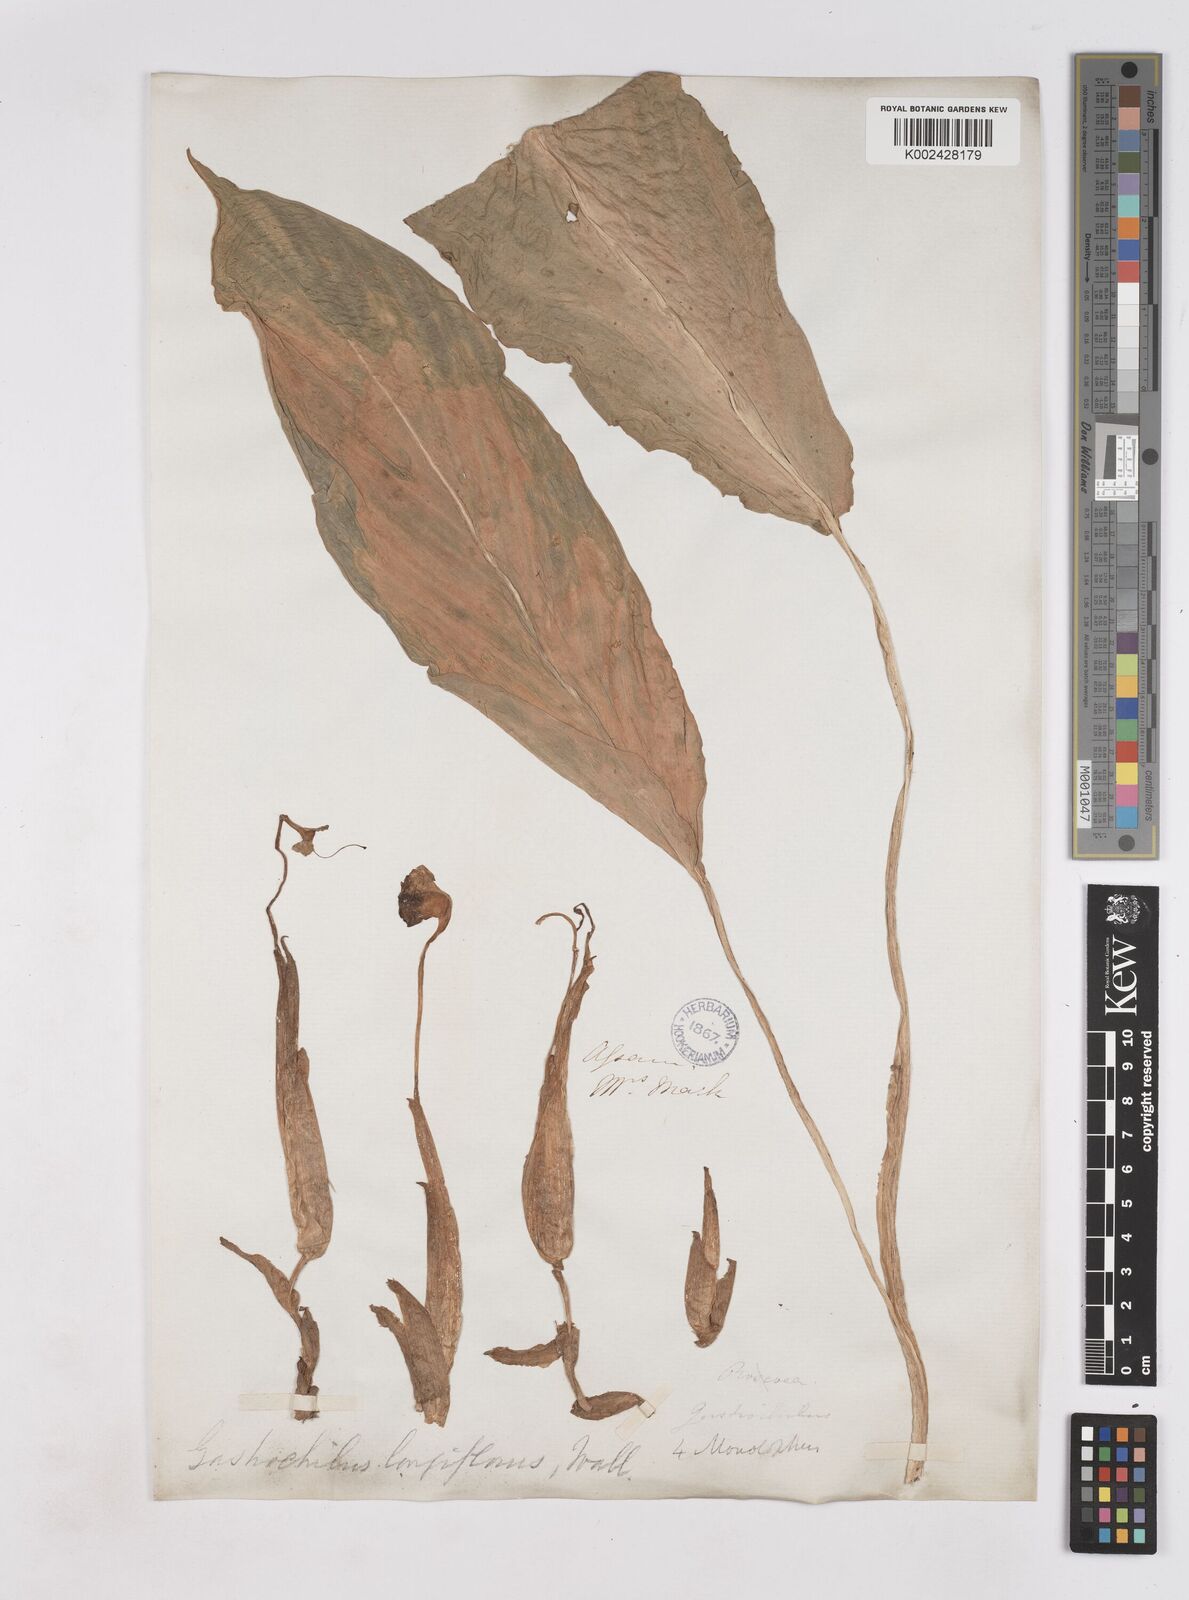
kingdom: Plantae
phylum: Tracheophyta
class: Liliopsida
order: Zingiberales
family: Zingiberaceae
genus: Boesenbergia
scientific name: Boesenbergia longiflora
